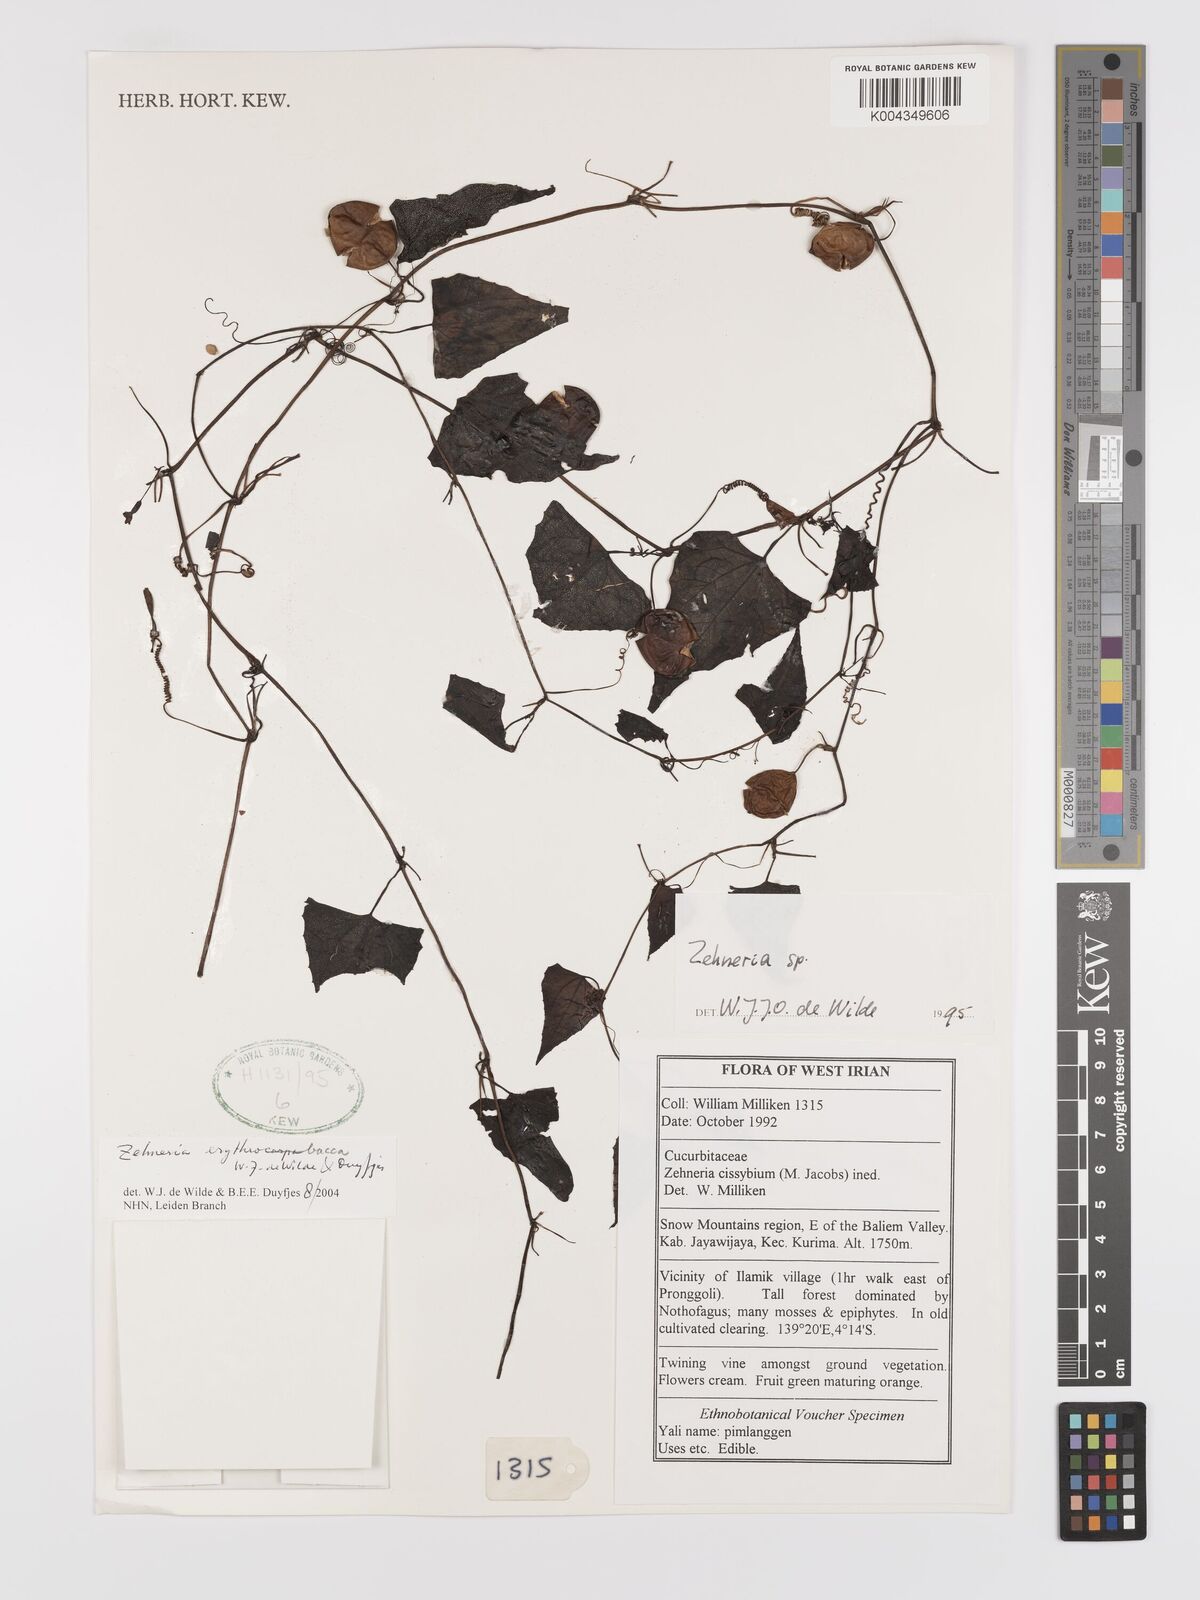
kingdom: Plantae
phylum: Tracheophyta
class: Magnoliopsida
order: Cucurbitales
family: Cucurbitaceae
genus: Zehneria
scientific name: Zehneria erythrobacca
